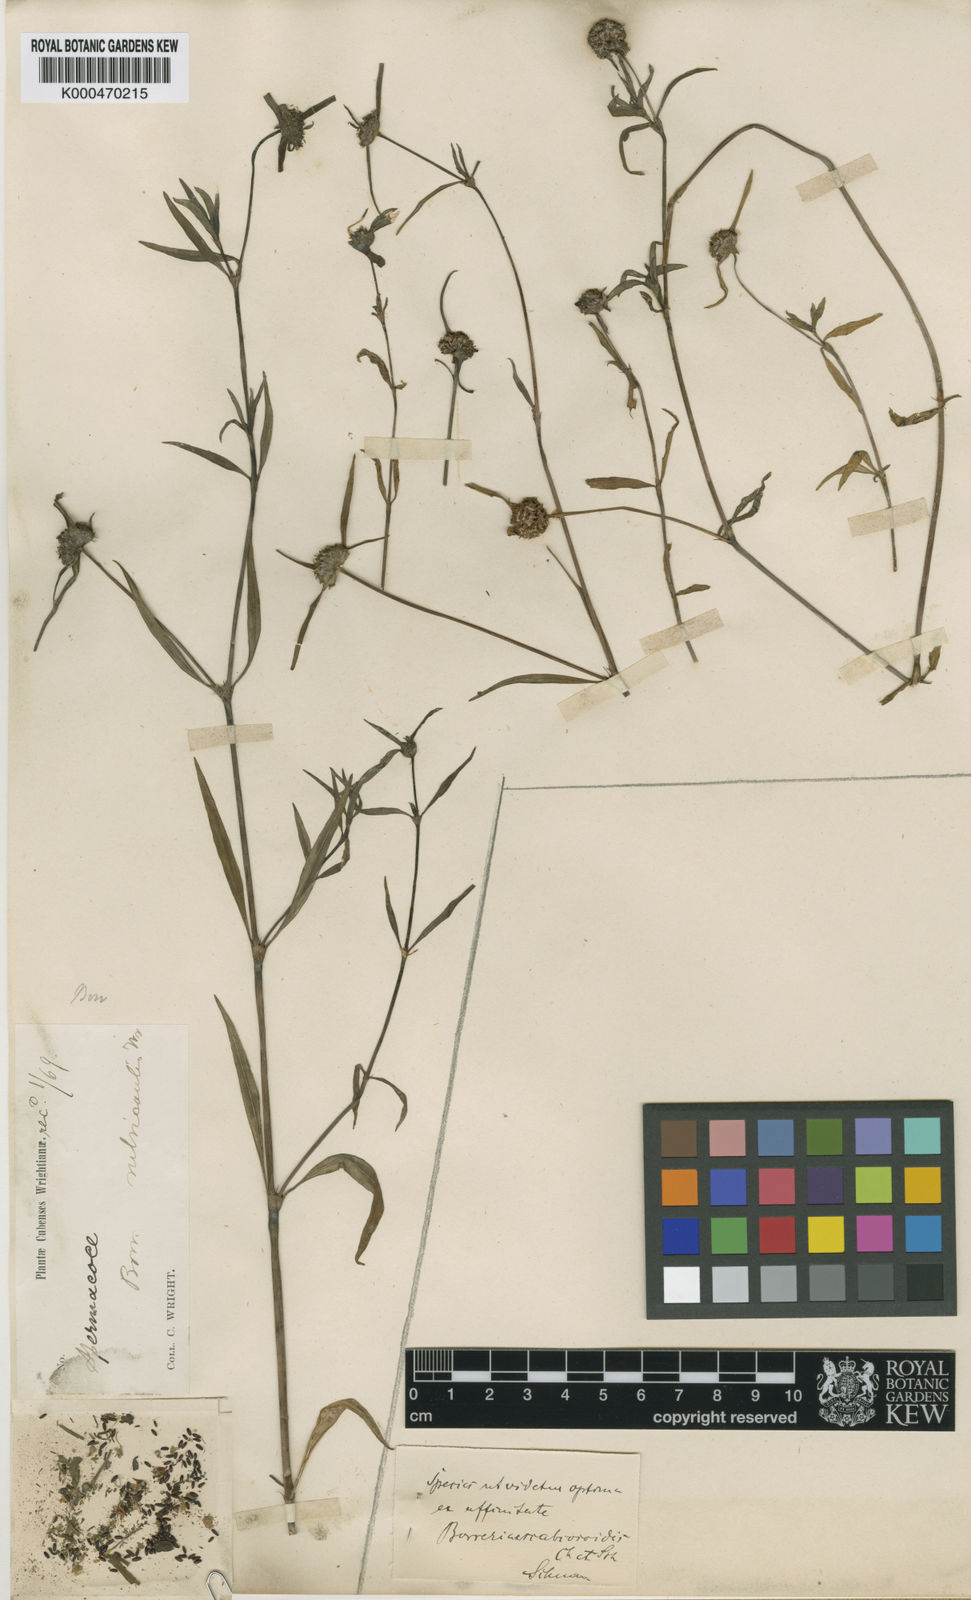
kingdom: Plantae
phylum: Tracheophyta
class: Magnoliopsida
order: Gentianales
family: Rubiaceae
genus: Spermacoce
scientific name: Spermacoce rubricaulis
